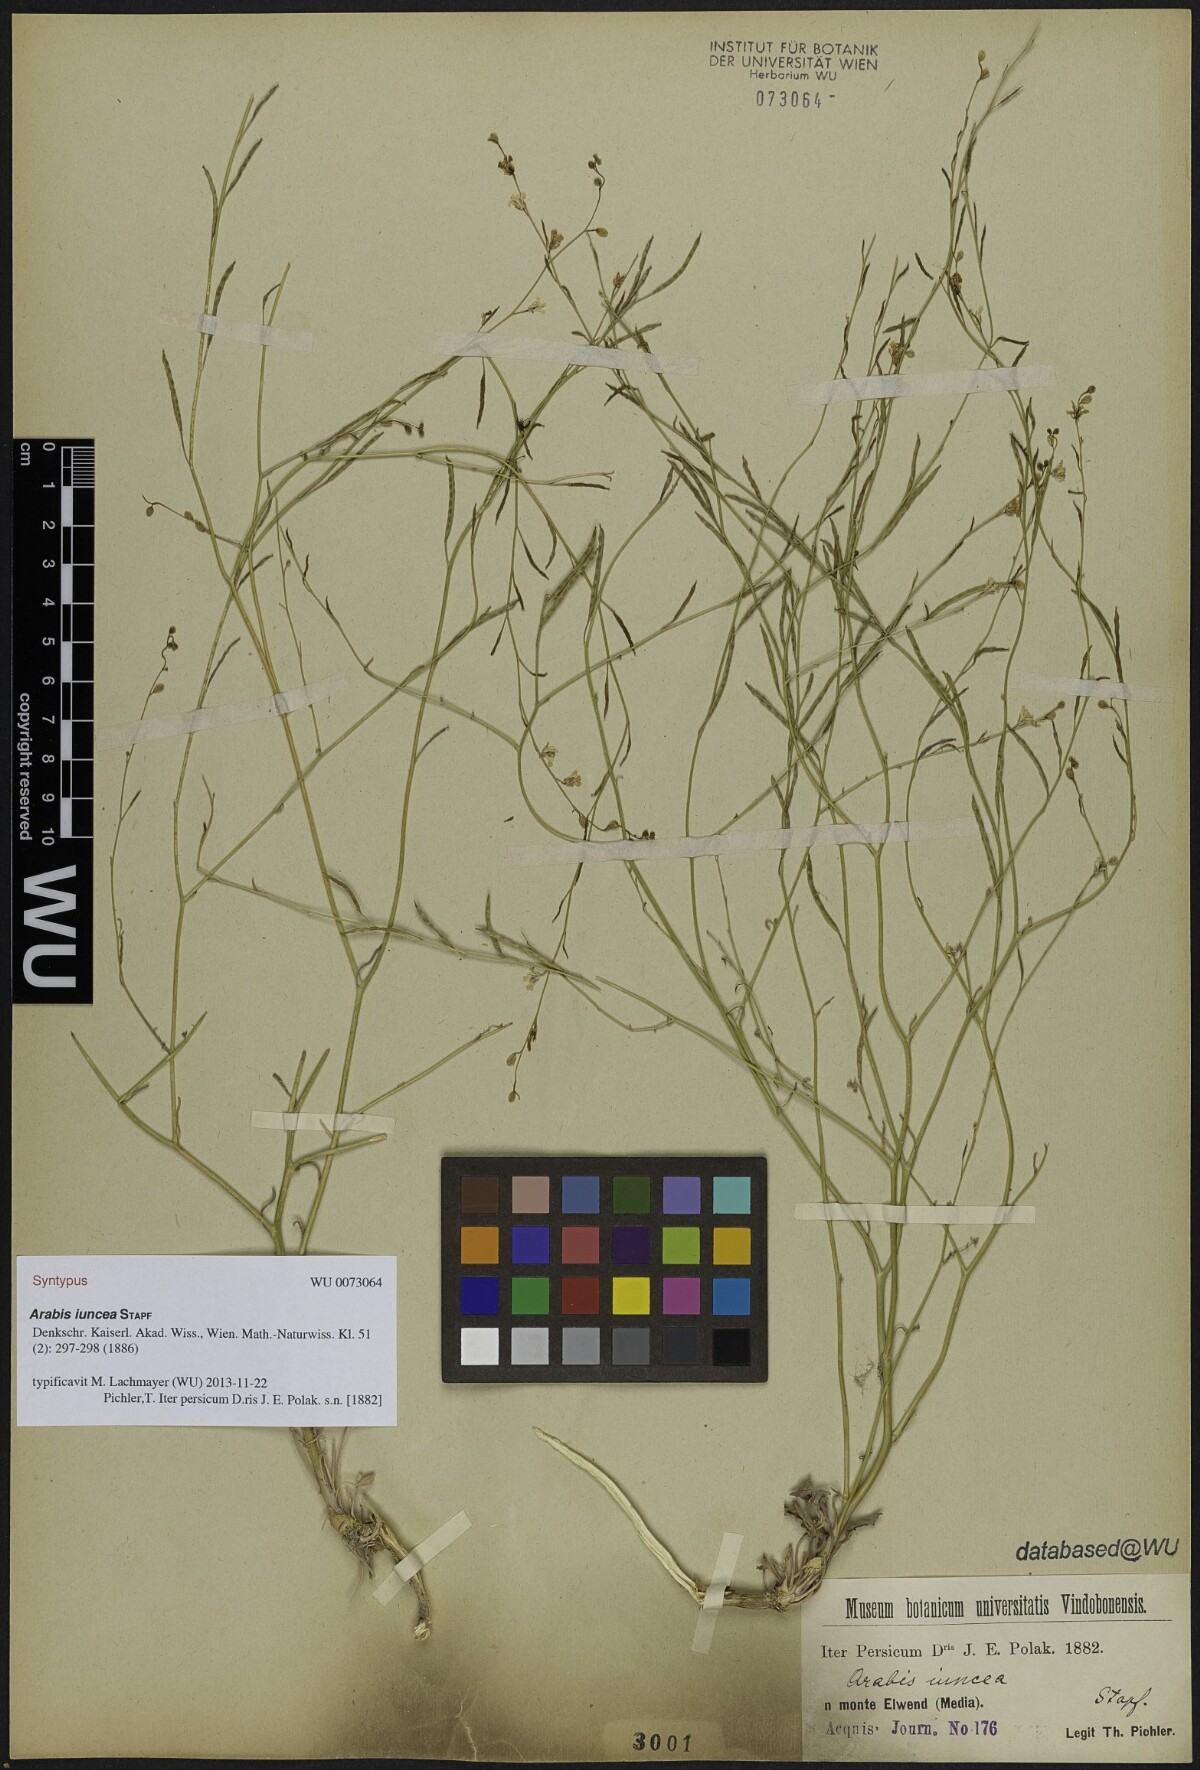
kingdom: Plantae
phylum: Tracheophyta
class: Magnoliopsida
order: Brassicales
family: Brassicaceae
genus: Arabis
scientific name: Arabis
